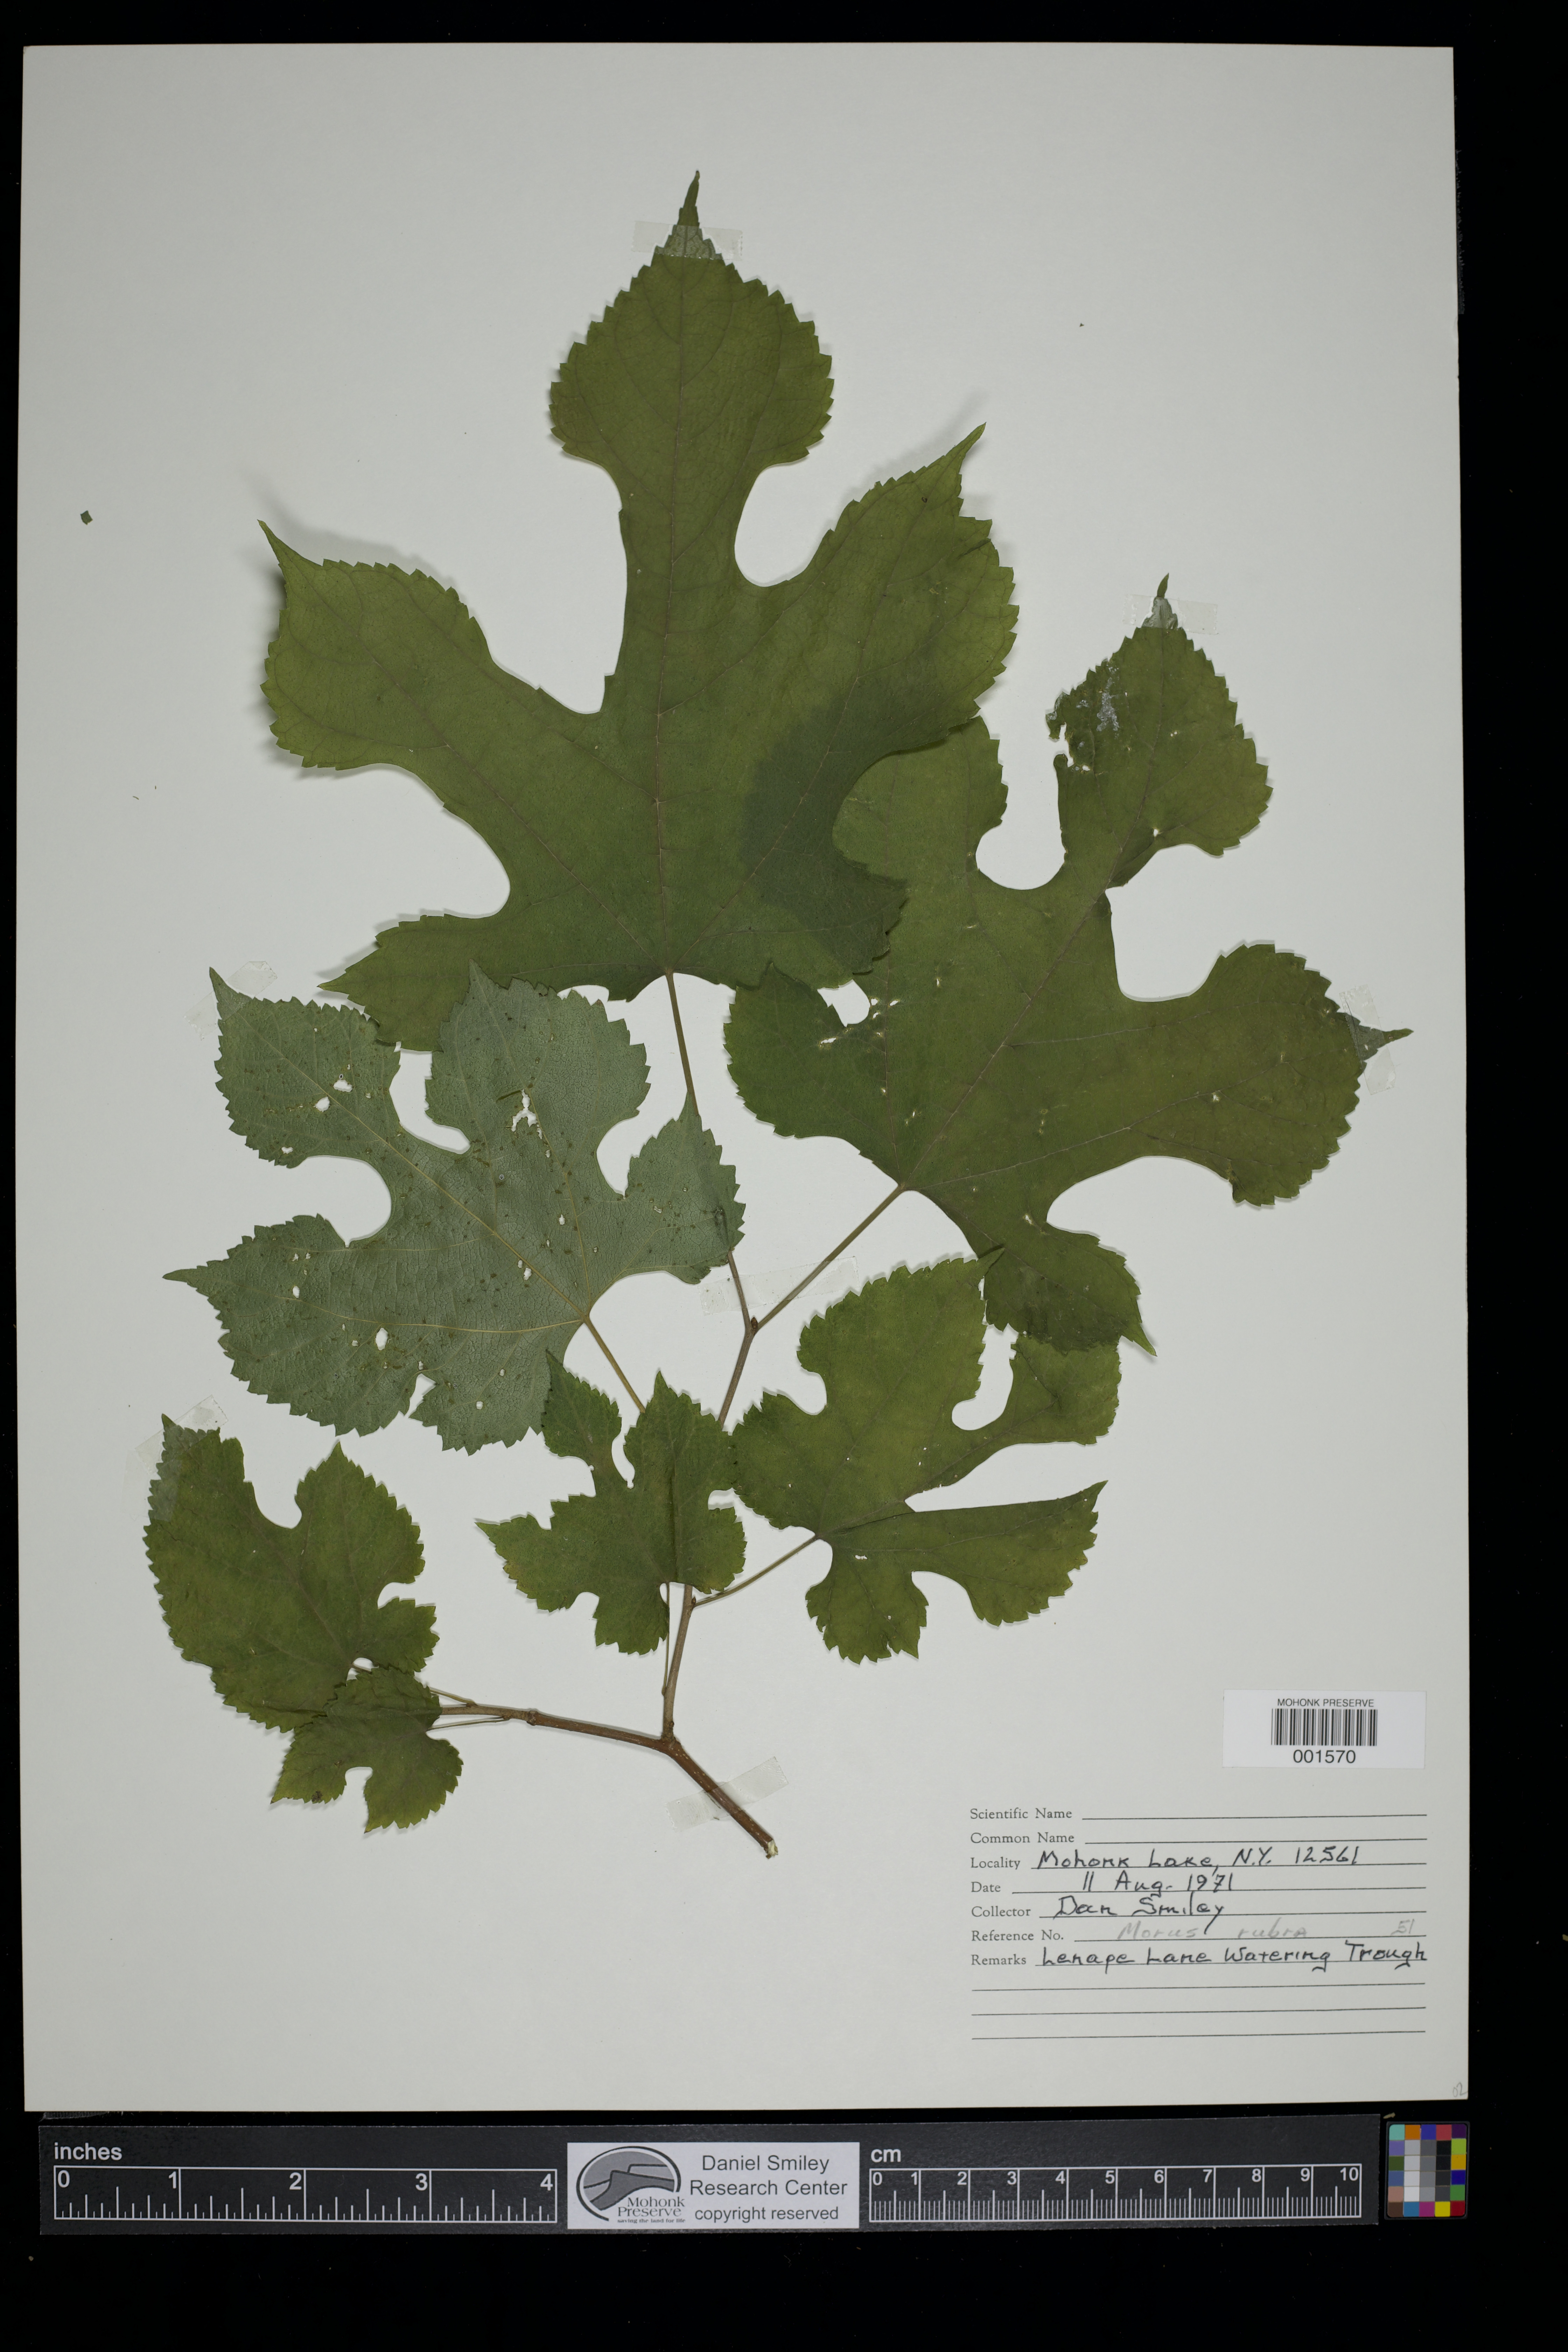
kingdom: Plantae
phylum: Tracheophyta
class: Magnoliopsida
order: Rosales
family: Moraceae
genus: Morus
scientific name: Morus rubra
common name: Red mulberry
